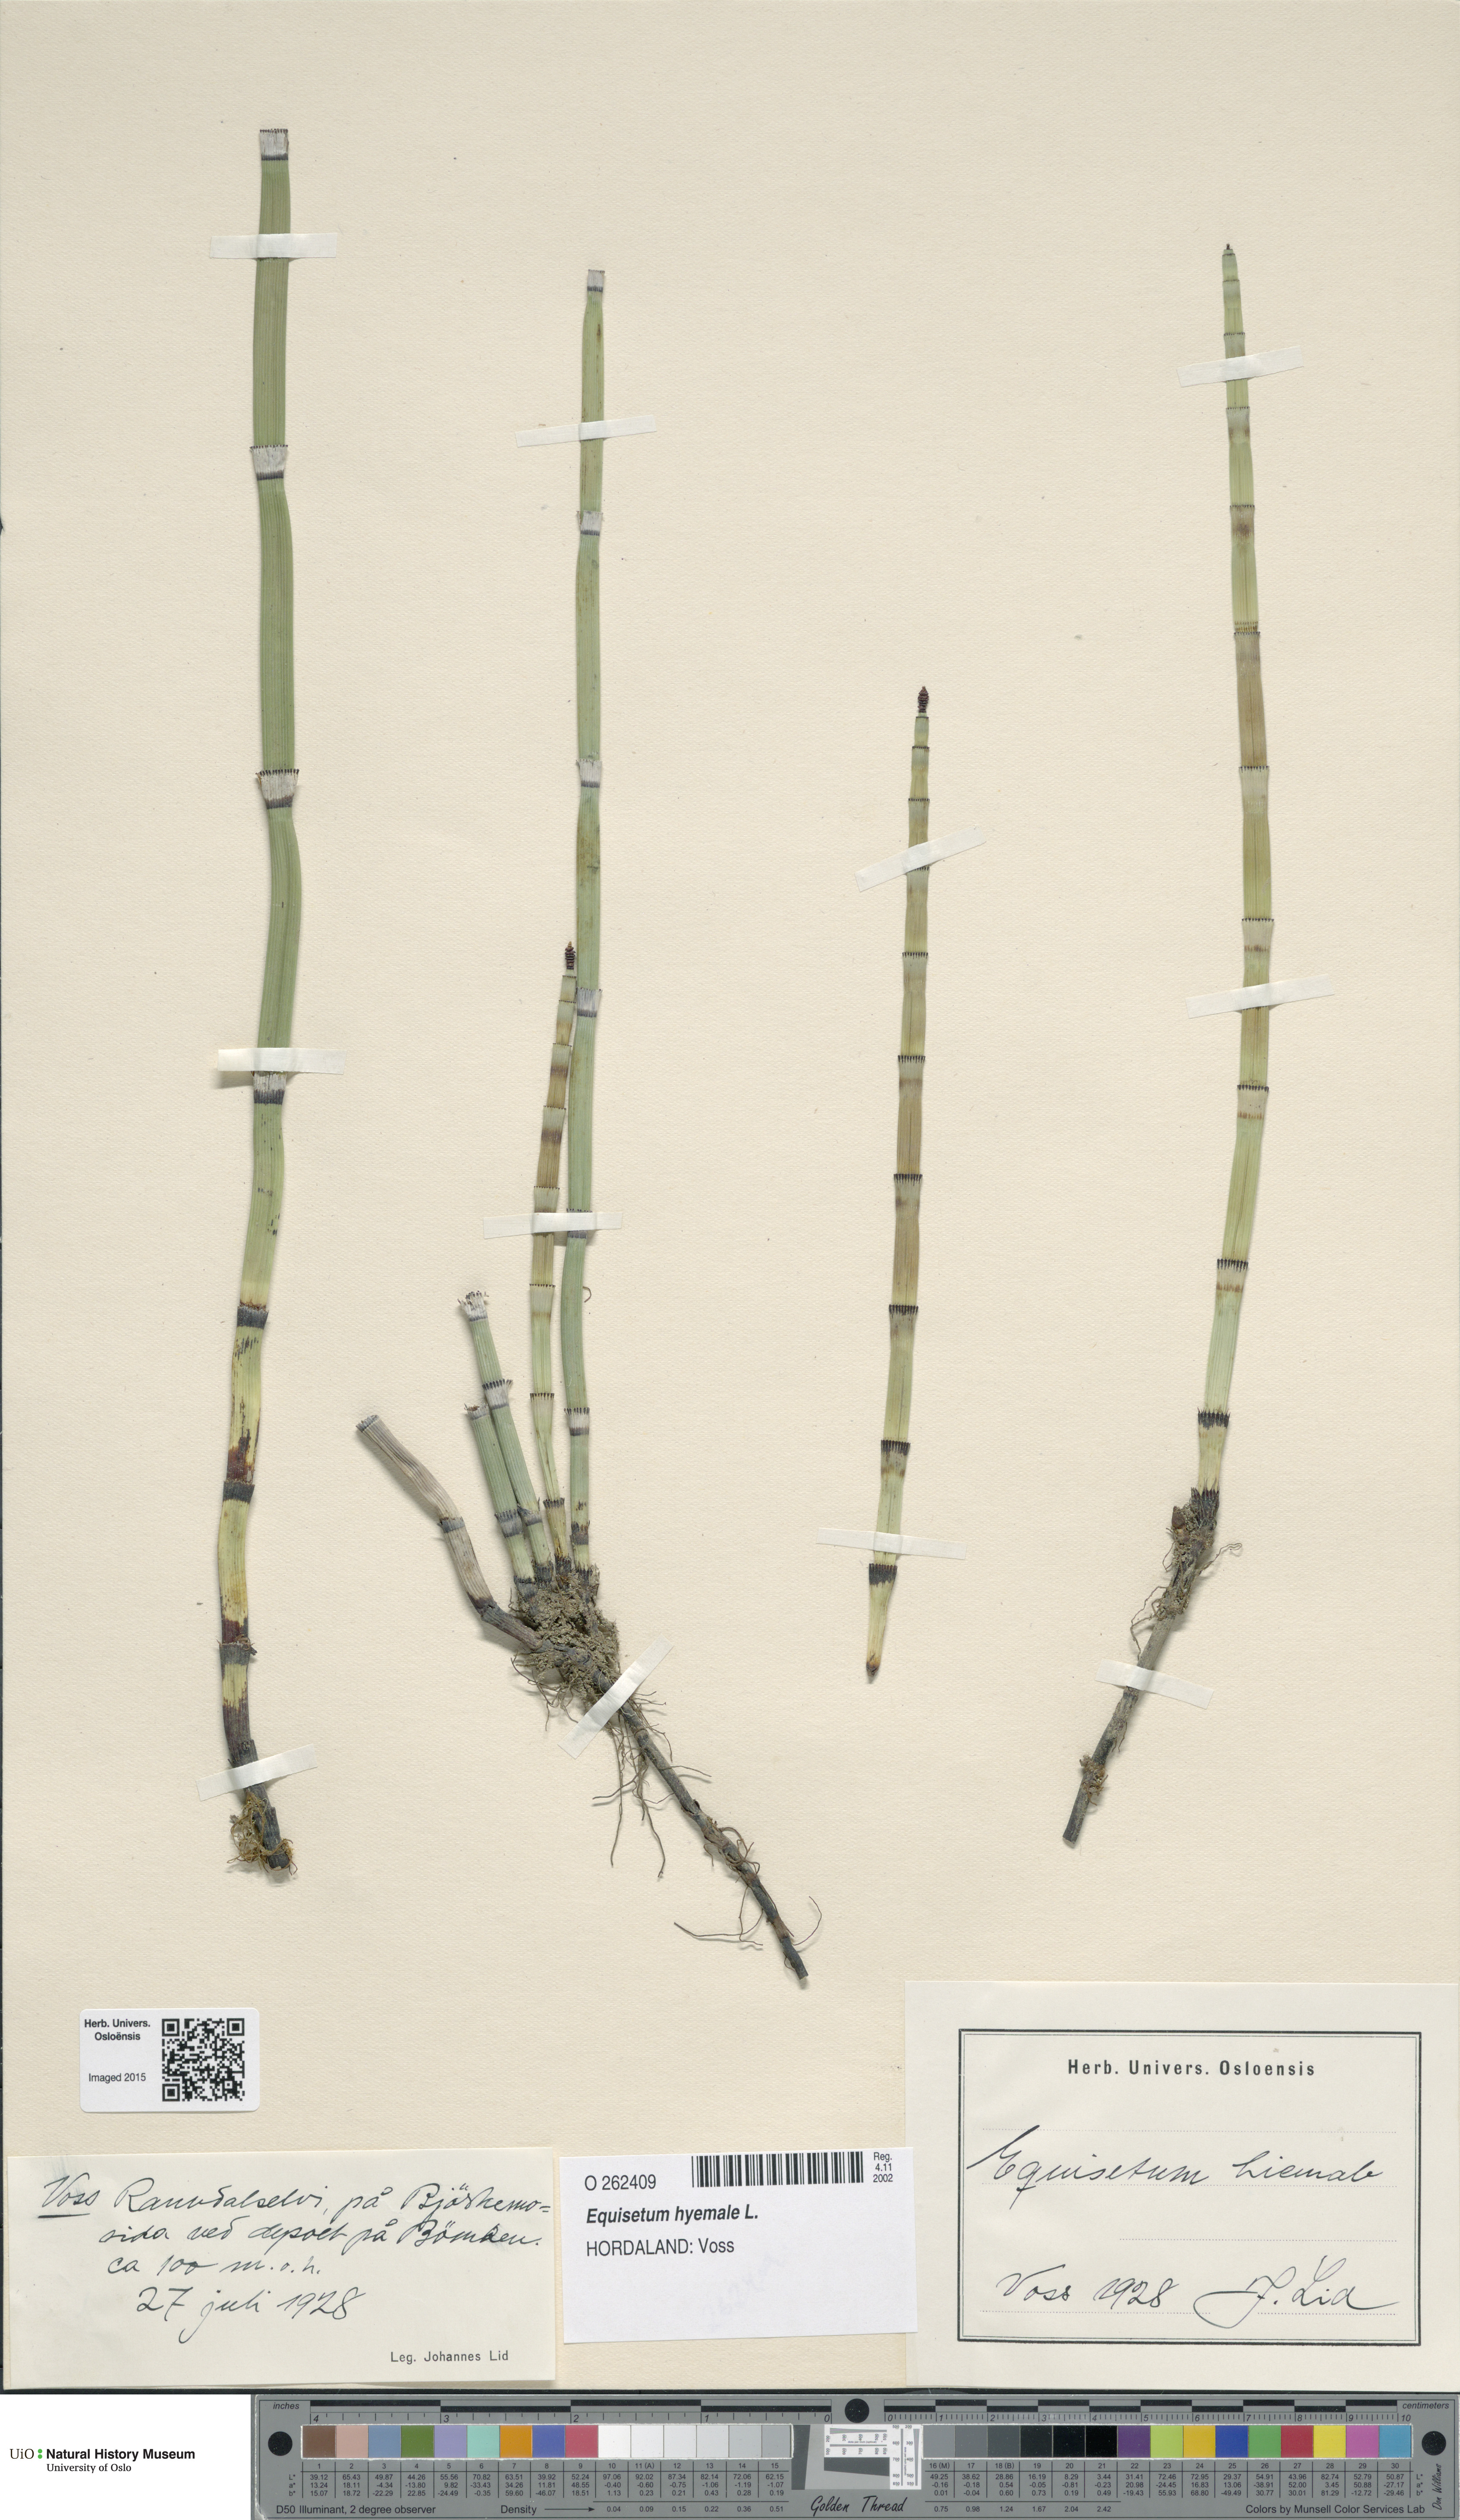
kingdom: Plantae
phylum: Tracheophyta
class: Polypodiopsida
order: Equisetales
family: Equisetaceae
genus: Equisetum
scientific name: Equisetum hyemale
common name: Rough horsetail
